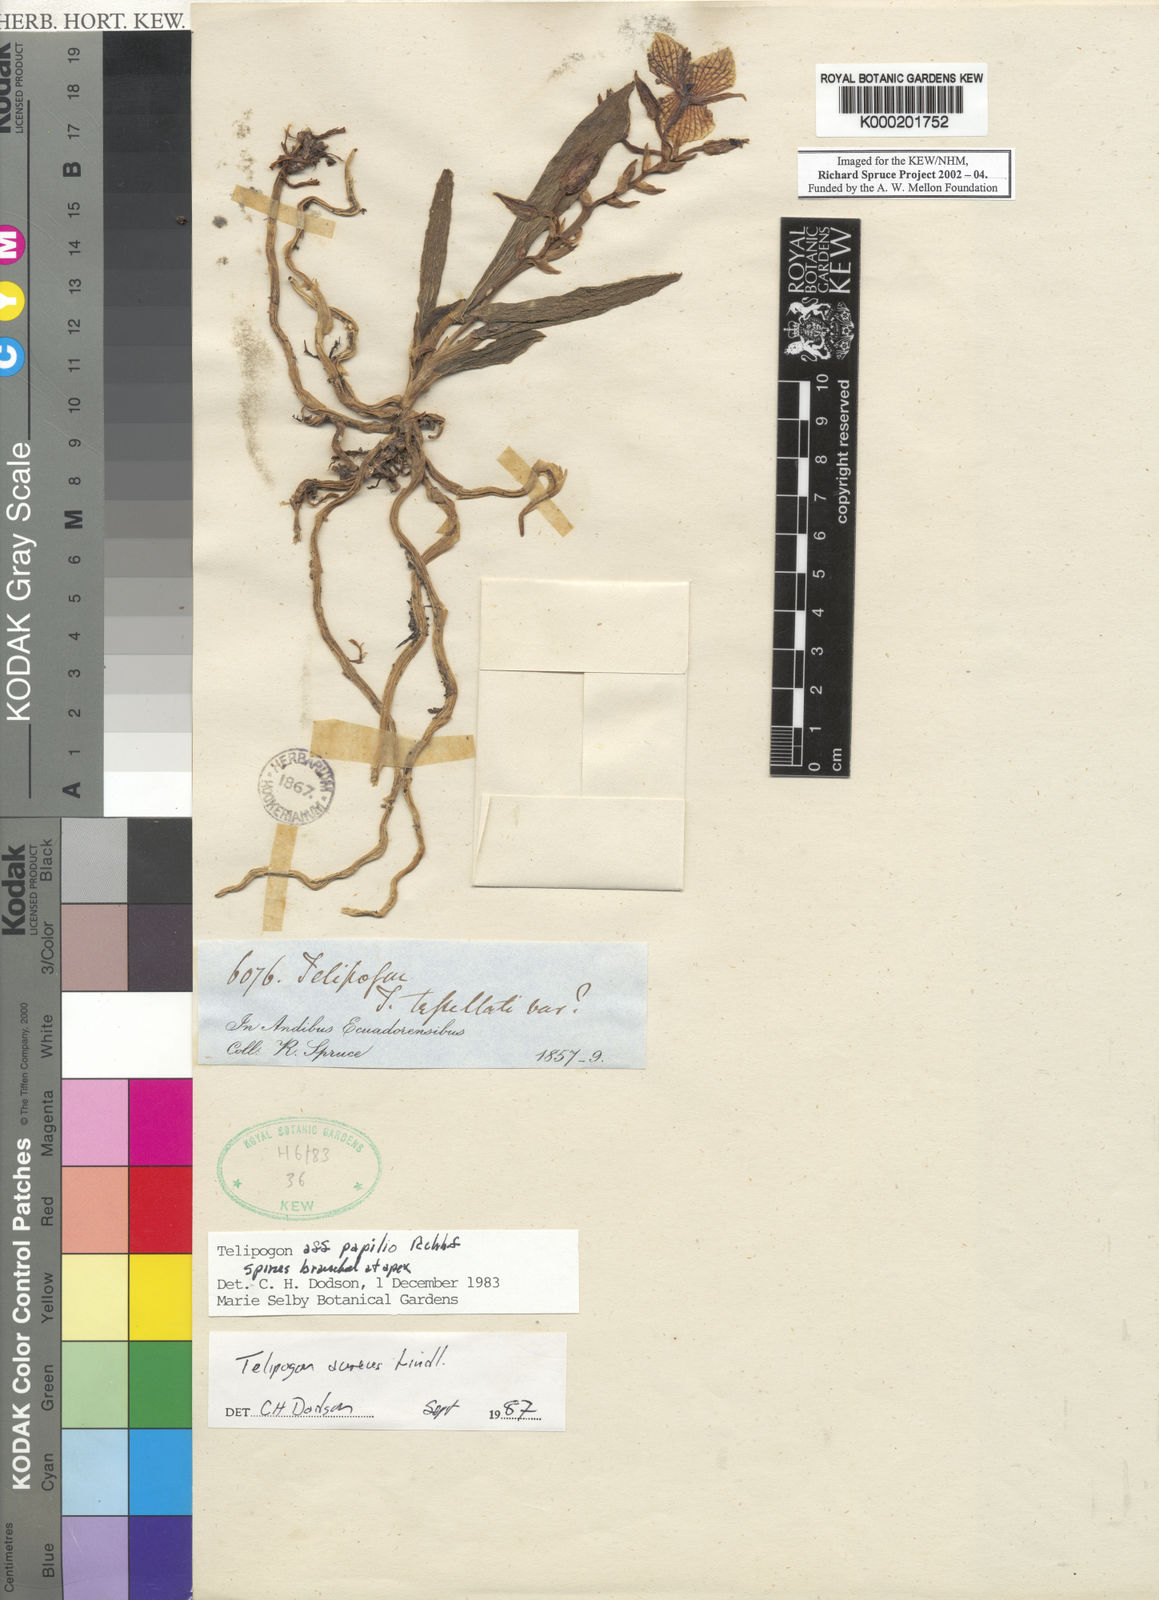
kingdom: Plantae
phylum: Tracheophyta
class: Liliopsida
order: Asparagales
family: Orchidaceae
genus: Telipogon
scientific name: Telipogon papilio
